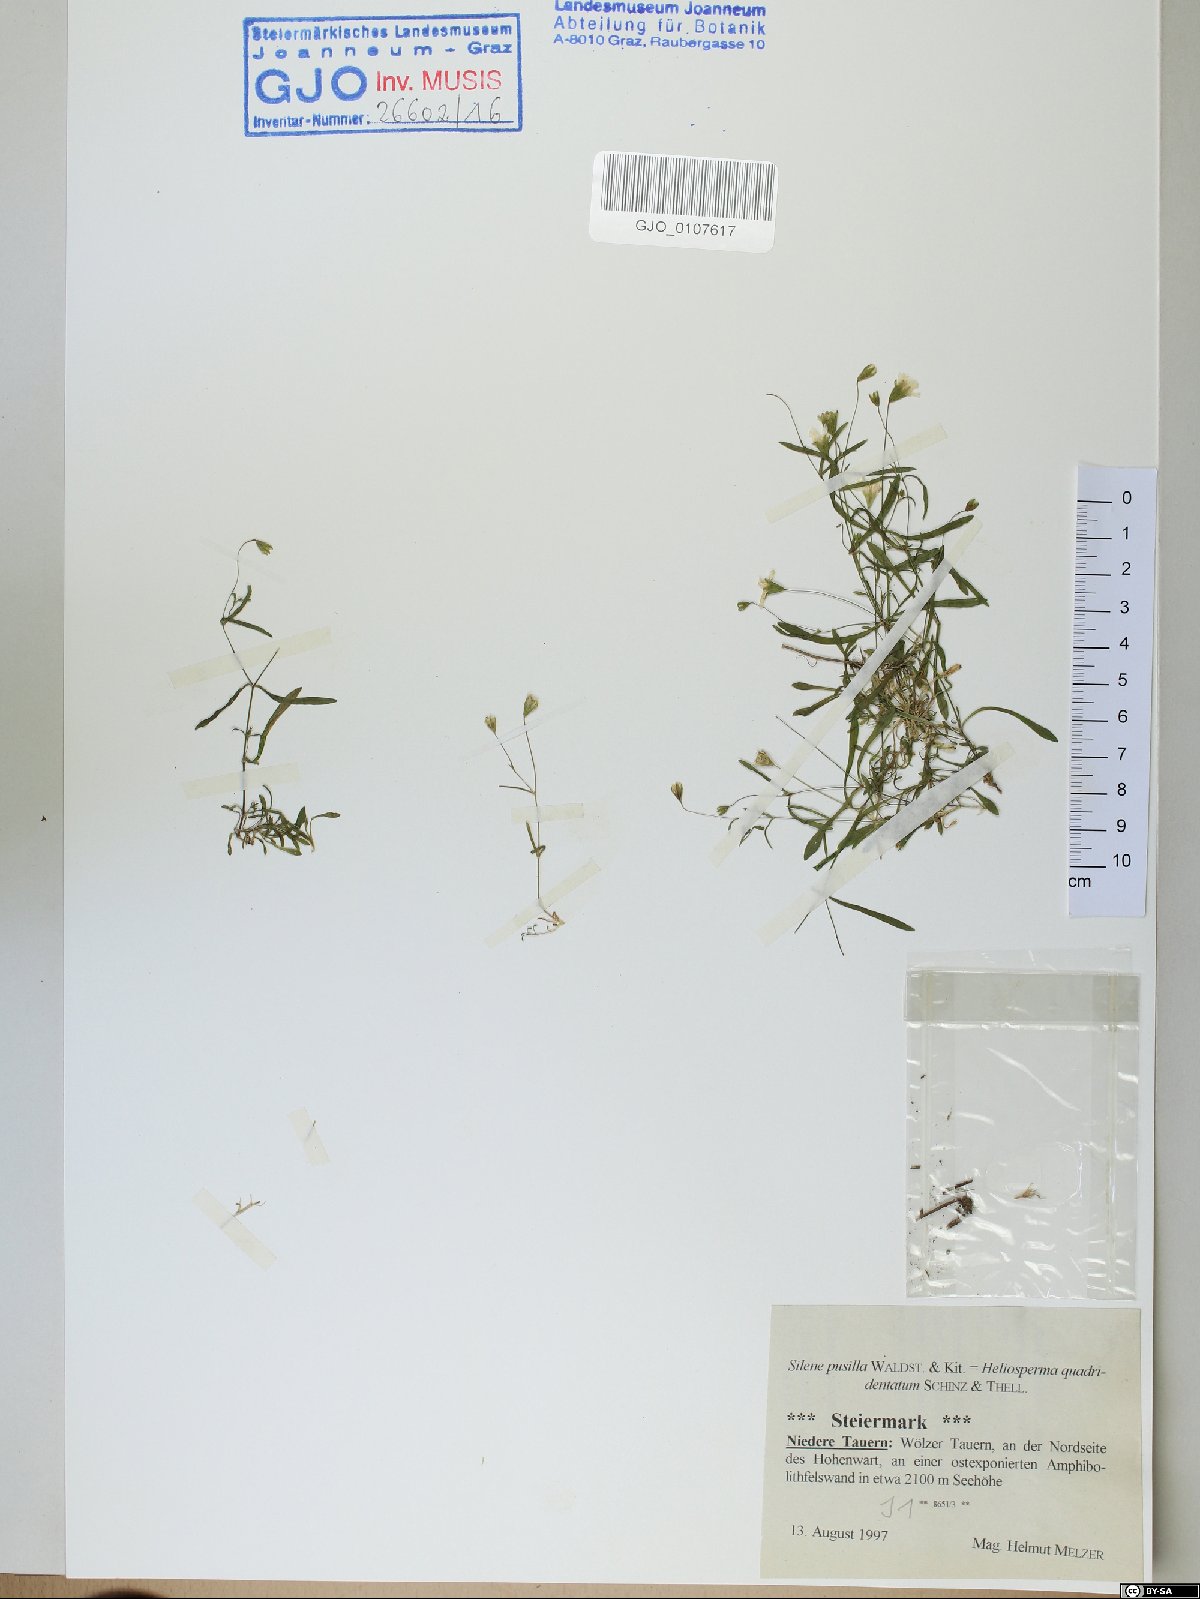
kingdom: Plantae
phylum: Tracheophyta
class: Magnoliopsida
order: Caryophyllales
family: Caryophyllaceae
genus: Heliosperma
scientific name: Heliosperma pusillum
